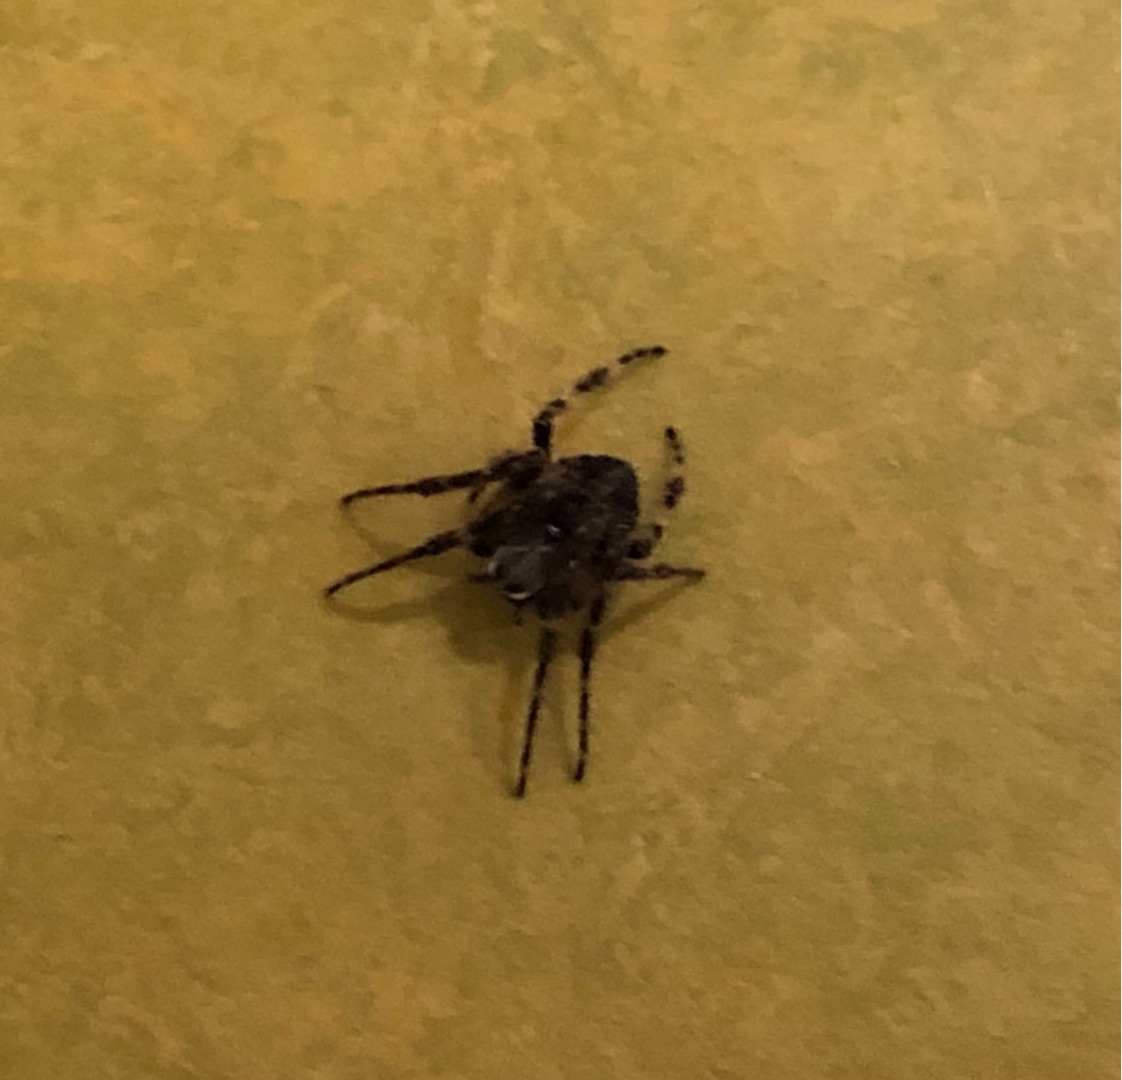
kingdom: Animalia
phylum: Arthropoda
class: Arachnida
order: Araneae
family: Araneidae
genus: Nuctenea
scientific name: Nuctenea umbratica
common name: Flad hjulspinder
